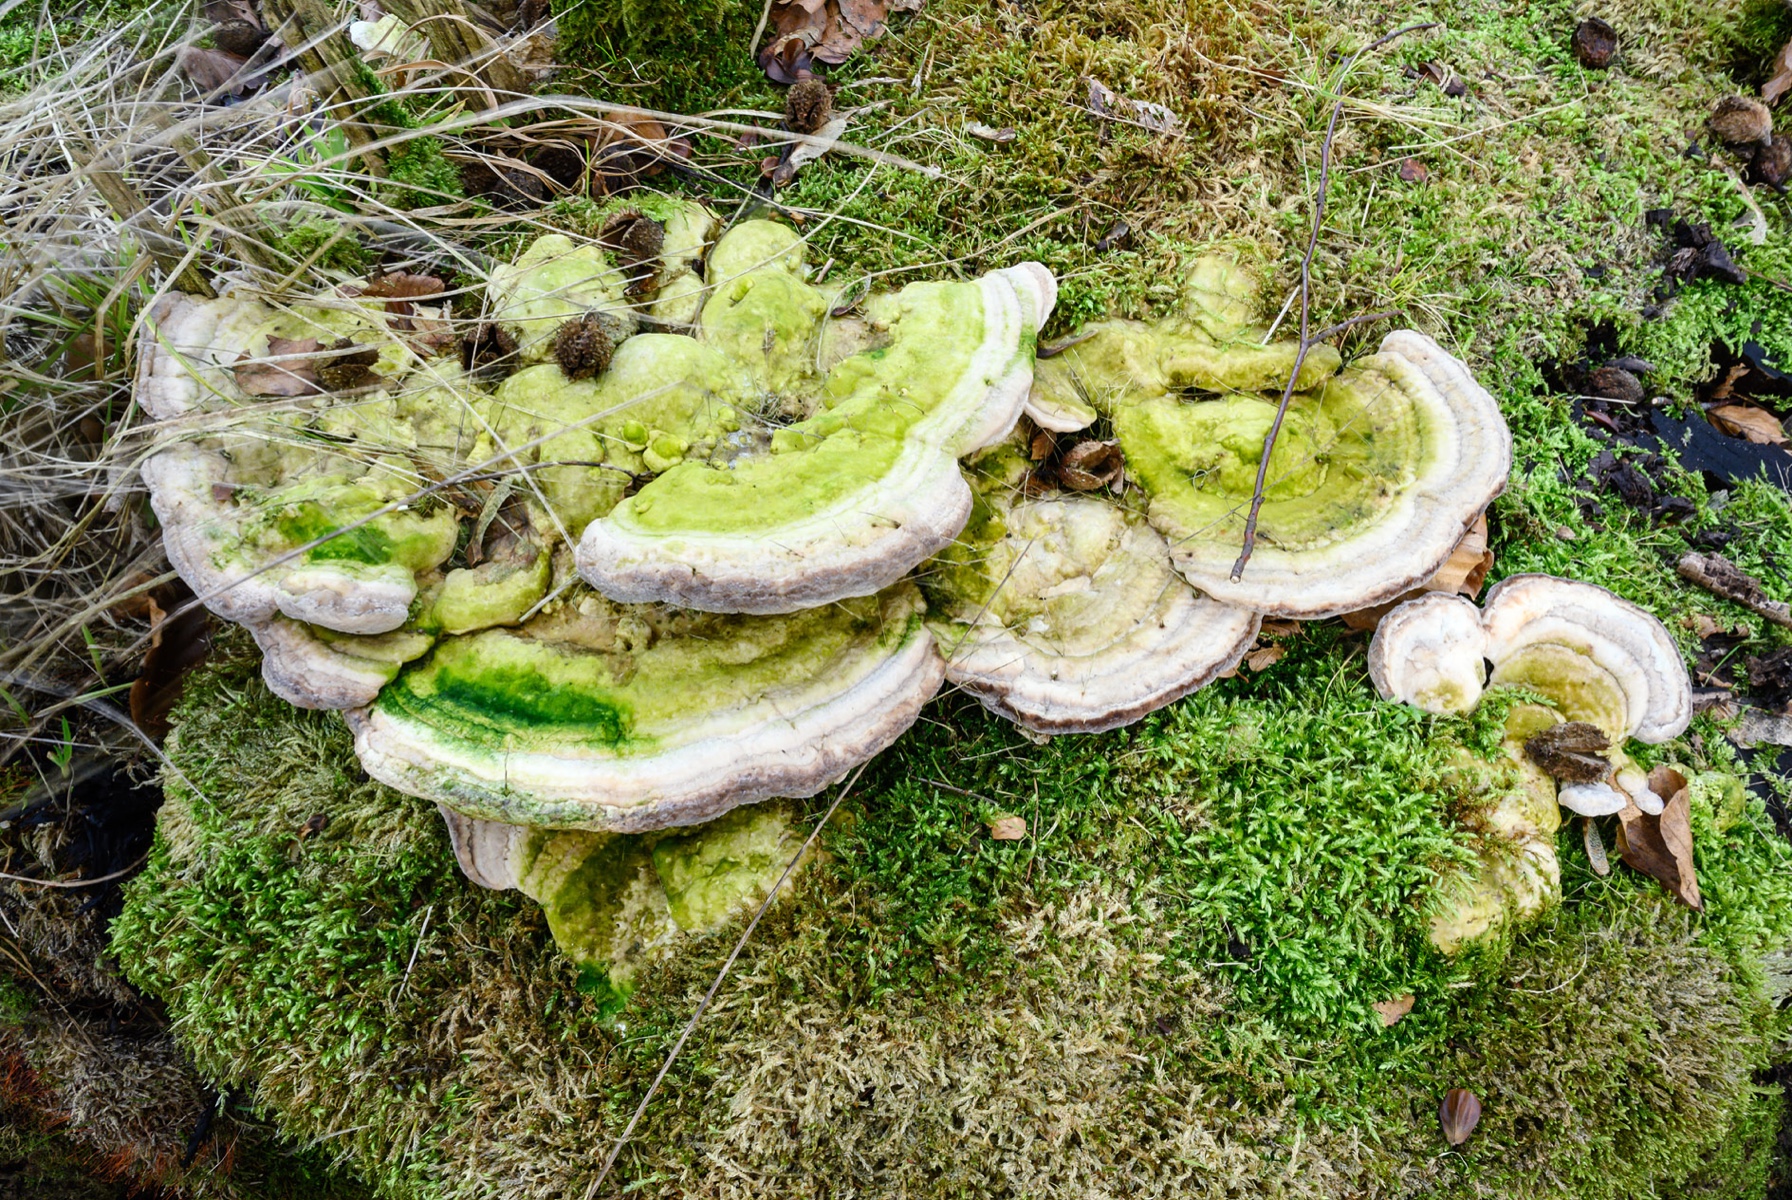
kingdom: Fungi
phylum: Basidiomycota
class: Agaricomycetes
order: Polyporales
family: Polyporaceae
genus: Trametes
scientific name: Trametes gibbosa
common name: puklet læderporesvamp
